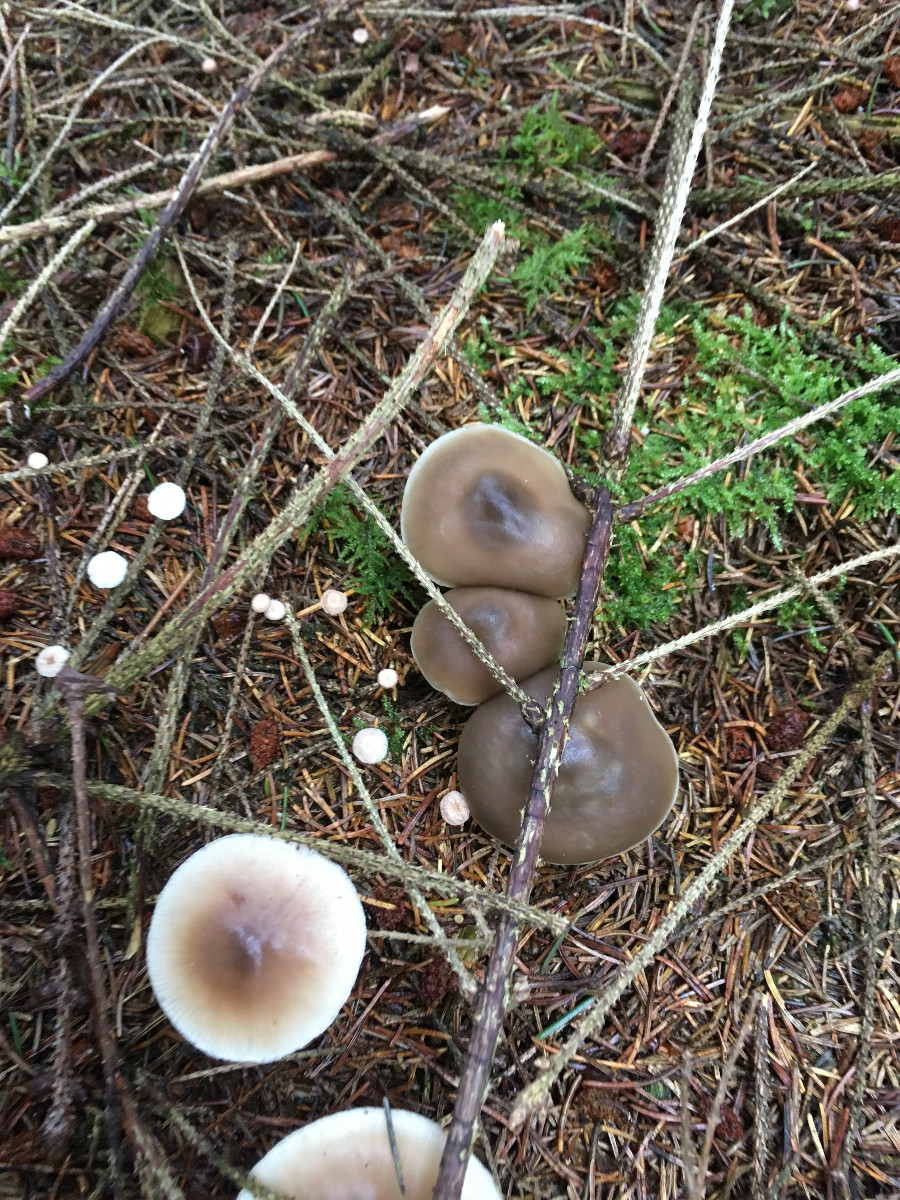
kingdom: Fungi
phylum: Basidiomycota
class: Agaricomycetes
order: Agaricales
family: Omphalotaceae
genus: Rhodocollybia
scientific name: Rhodocollybia asema
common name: horngrå fladhat
